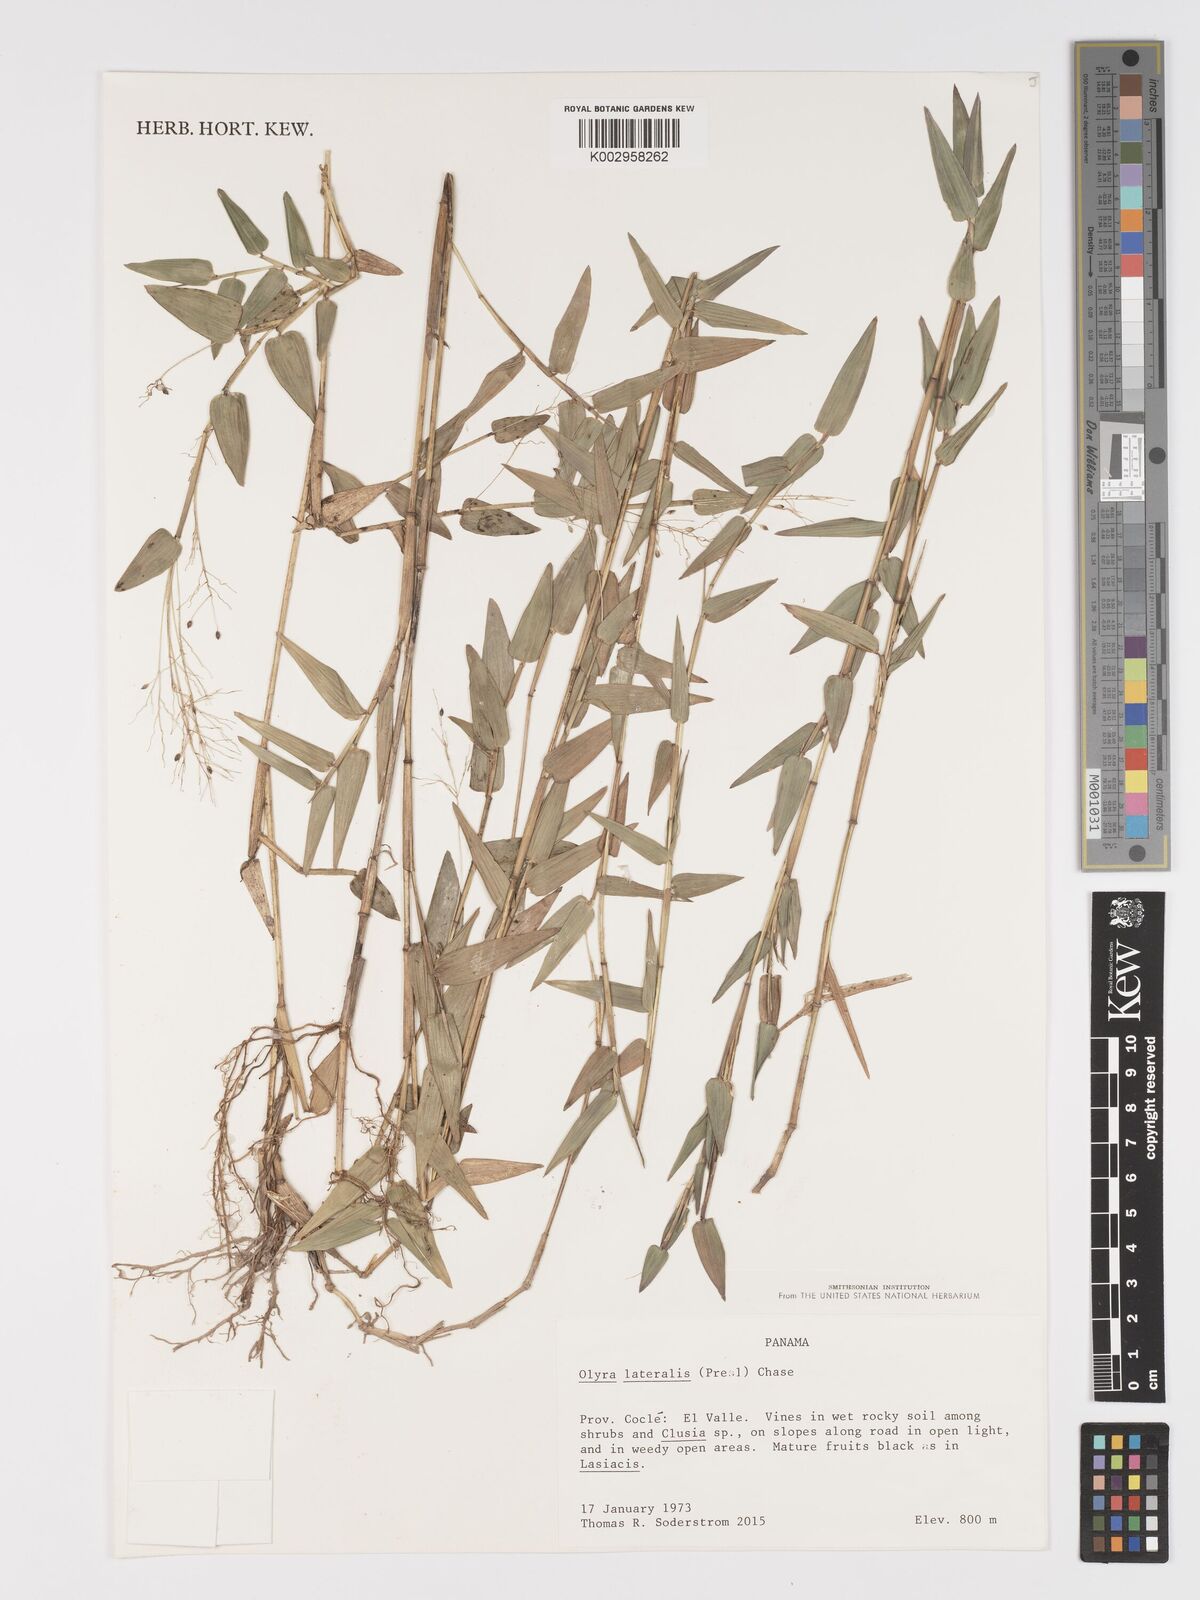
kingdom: Plantae
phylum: Tracheophyta
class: Liliopsida
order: Poales
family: Poaceae
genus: Parodiolyra
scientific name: Parodiolyra lateralis
